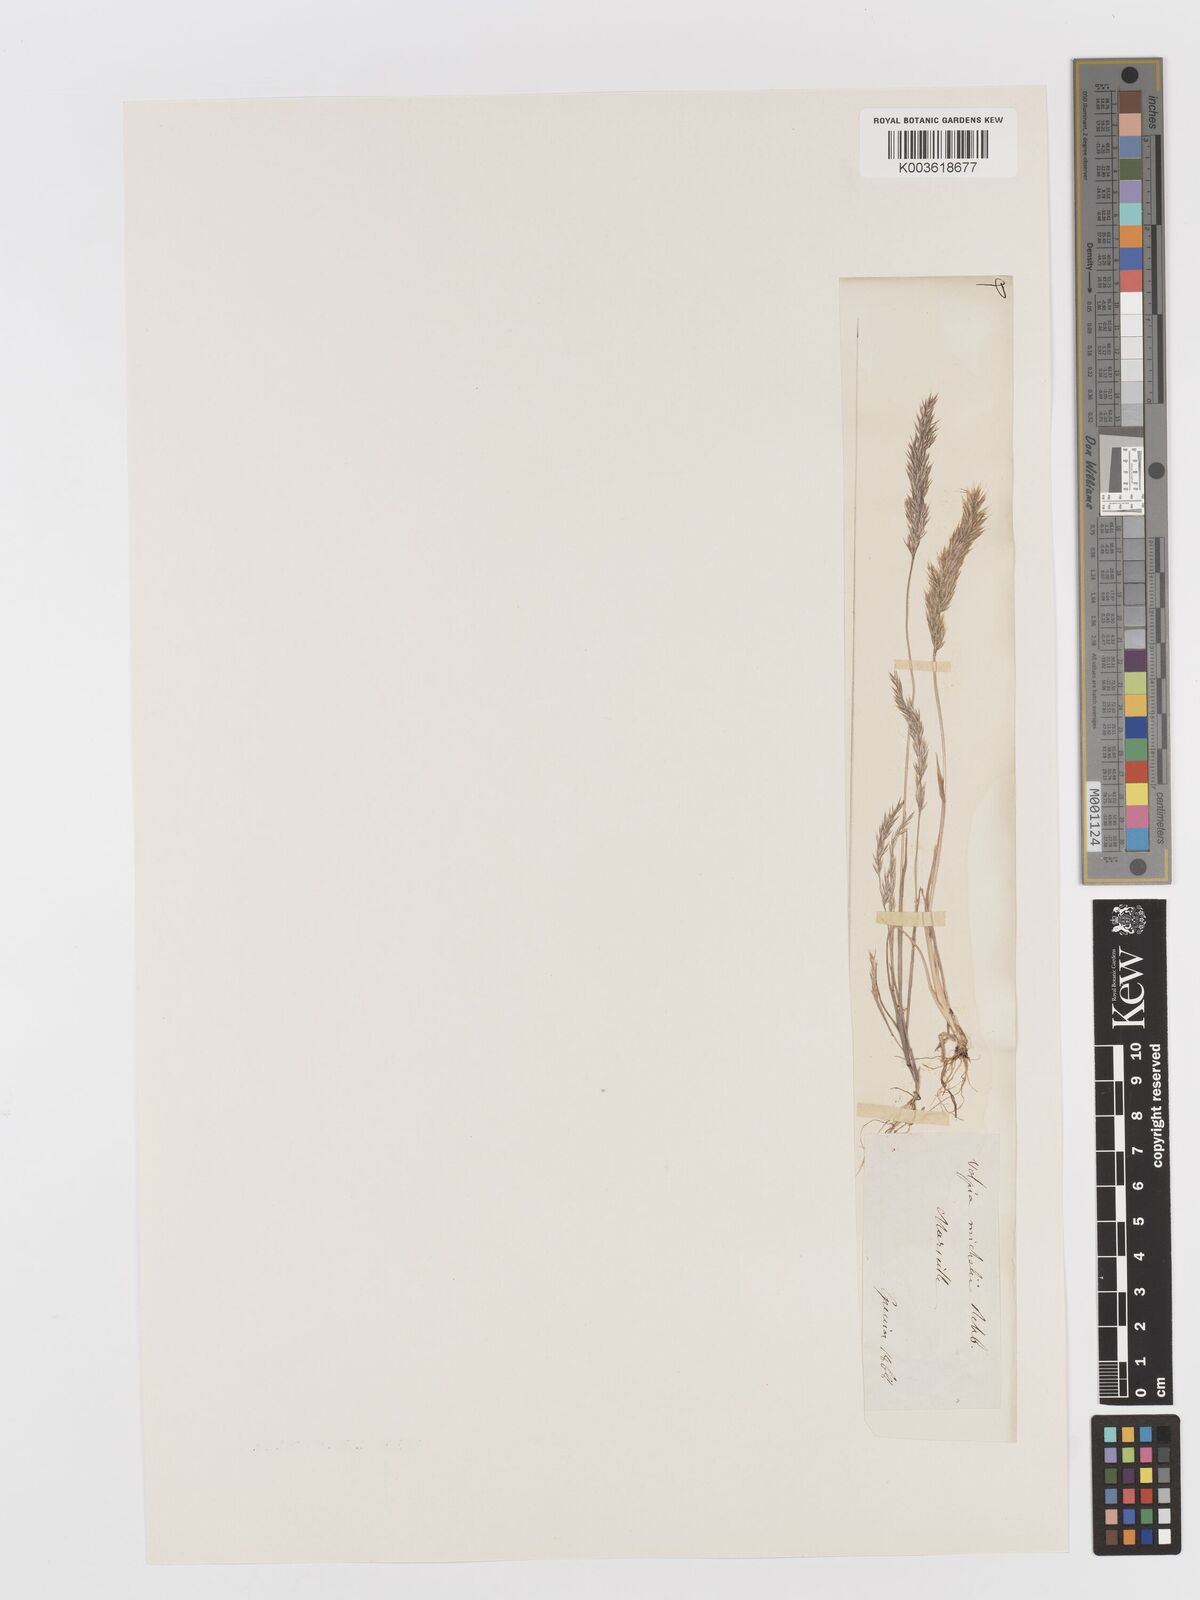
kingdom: Plantae
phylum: Tracheophyta
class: Liliopsida
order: Poales
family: Poaceae
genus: Avellinia
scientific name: Avellinia festucoides
